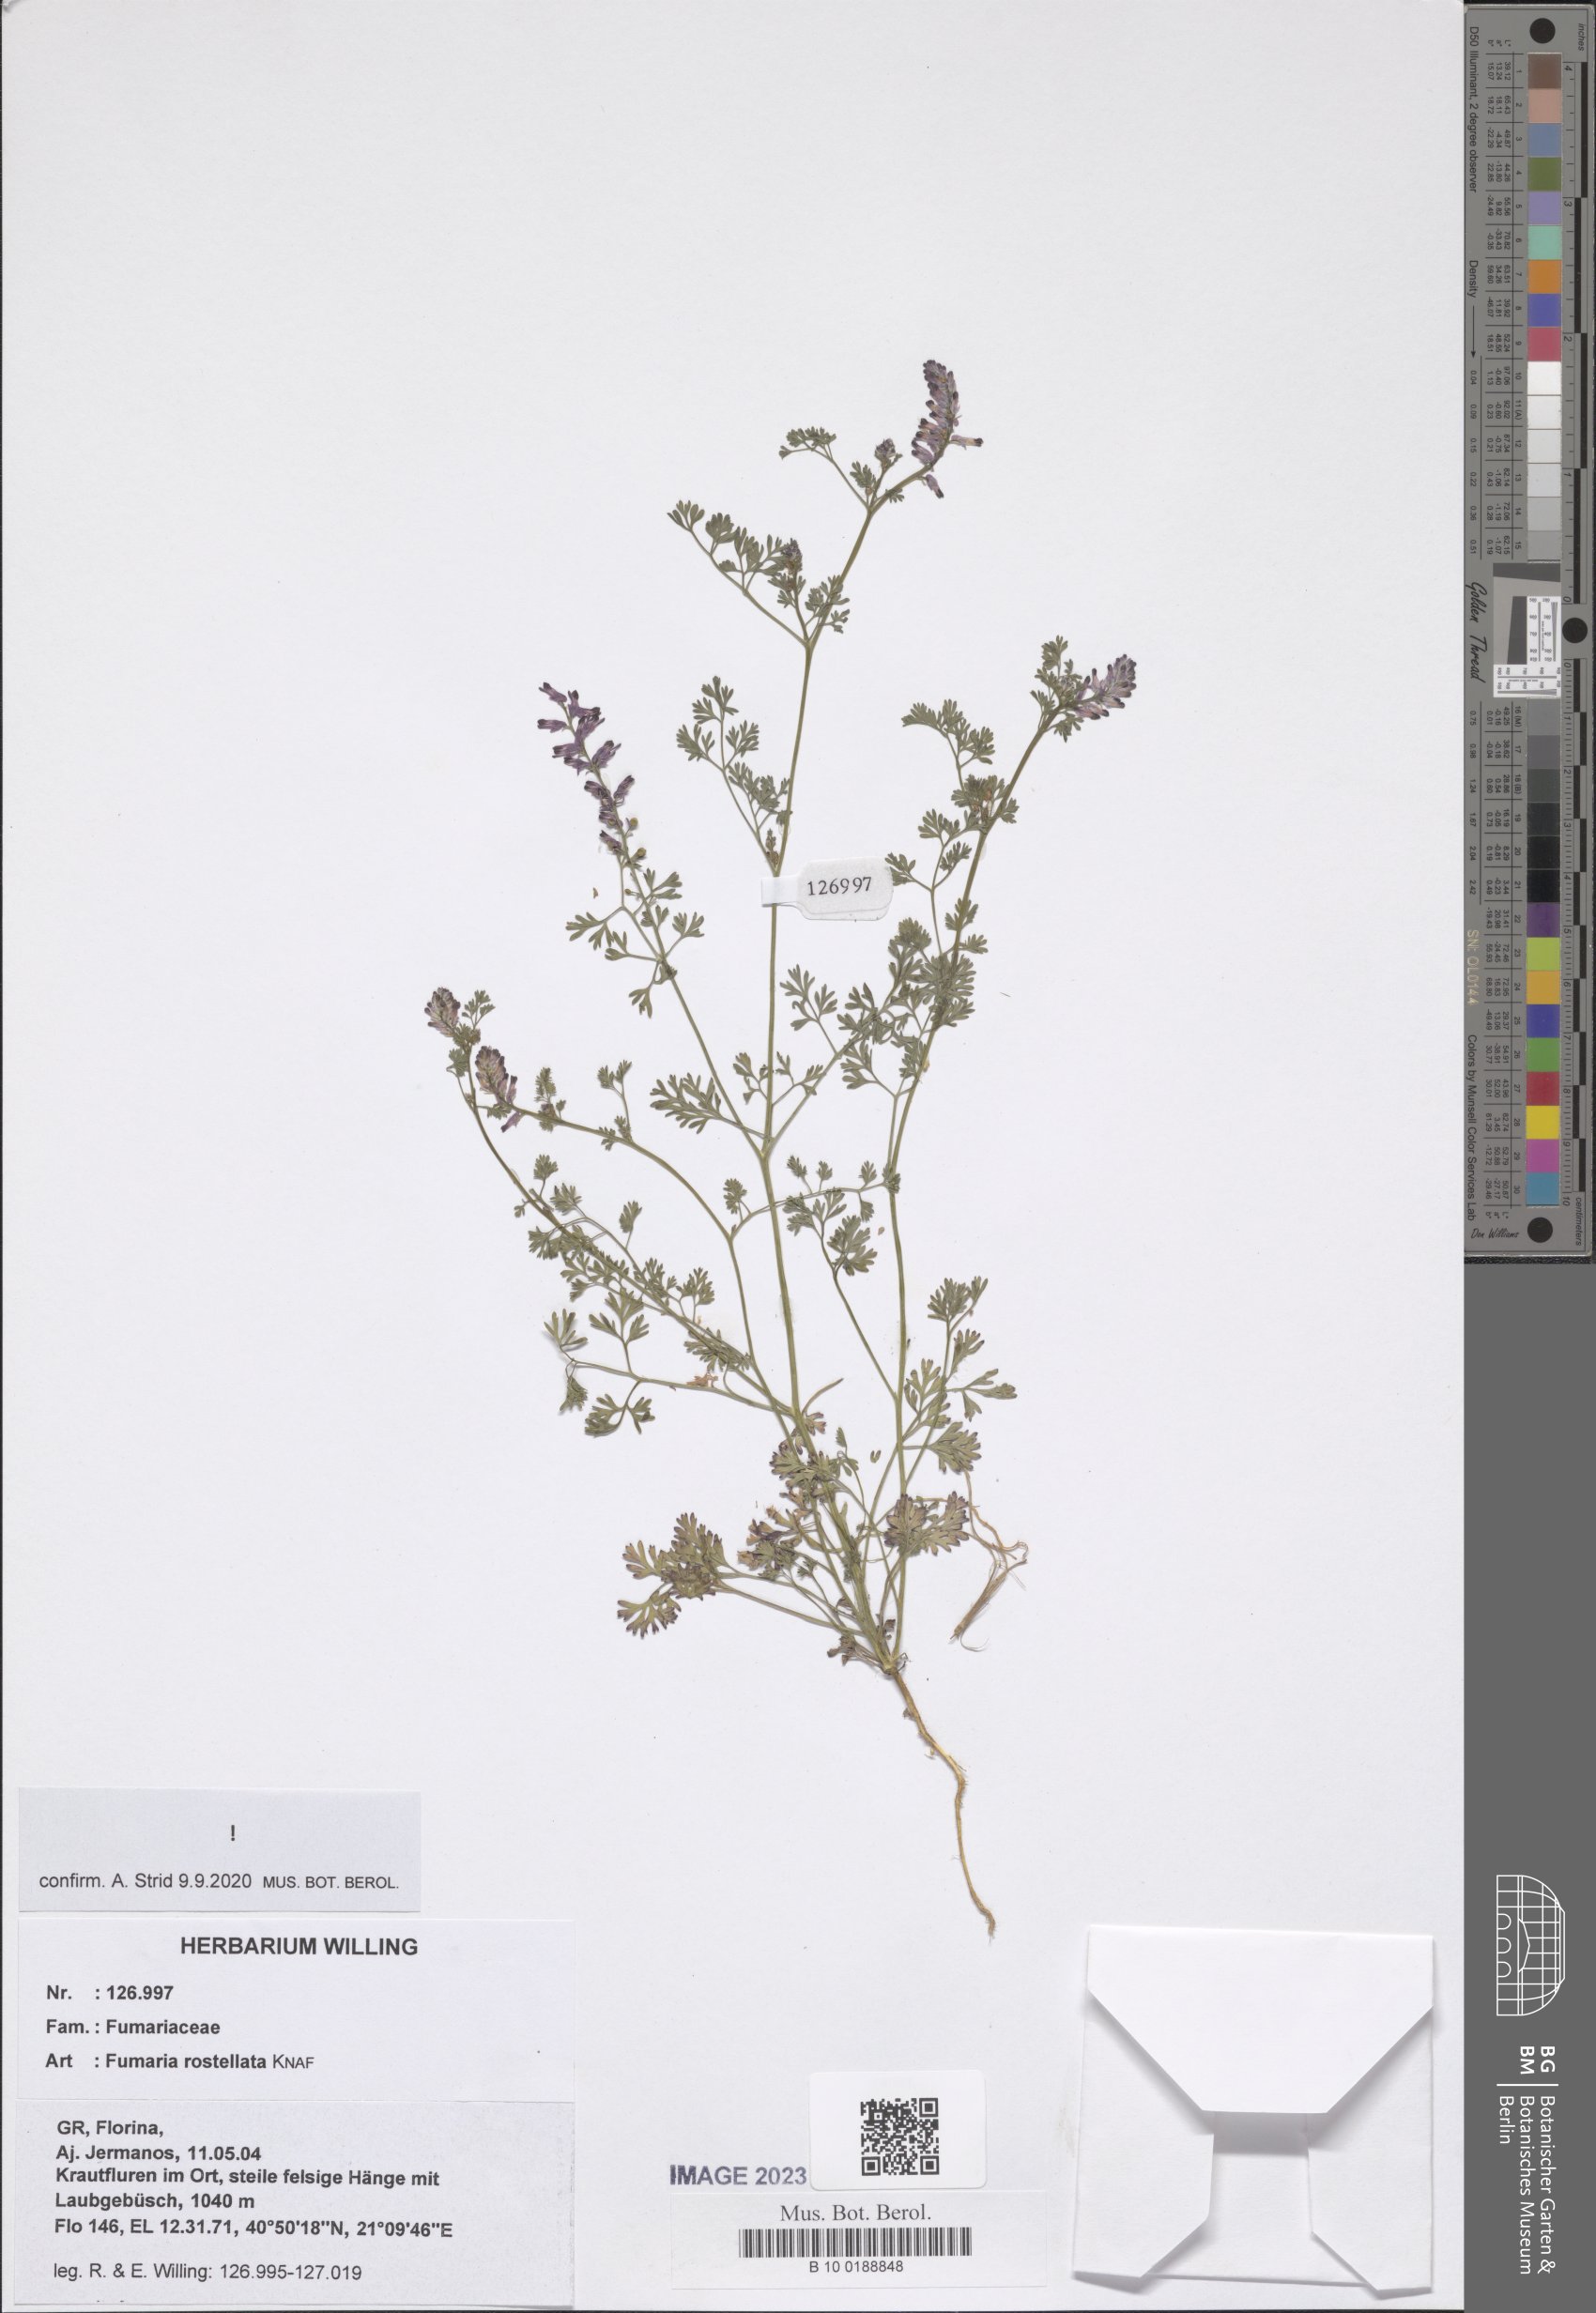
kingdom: Plantae
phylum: Tracheophyta
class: Magnoliopsida
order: Ranunculales
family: Papaveraceae
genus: Fumaria
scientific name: Fumaria rostellata
